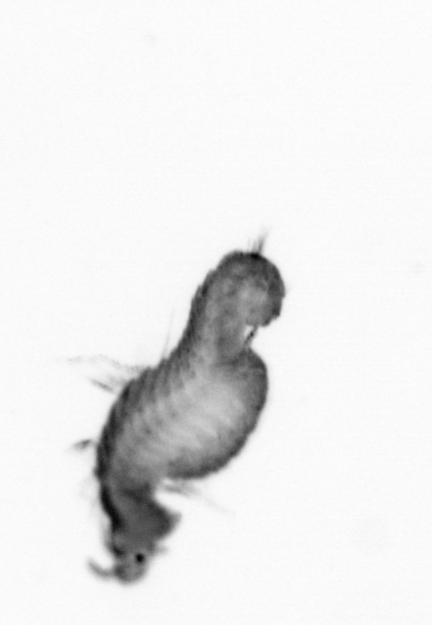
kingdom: Animalia
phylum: Annelida
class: Polychaeta
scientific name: Polychaeta
